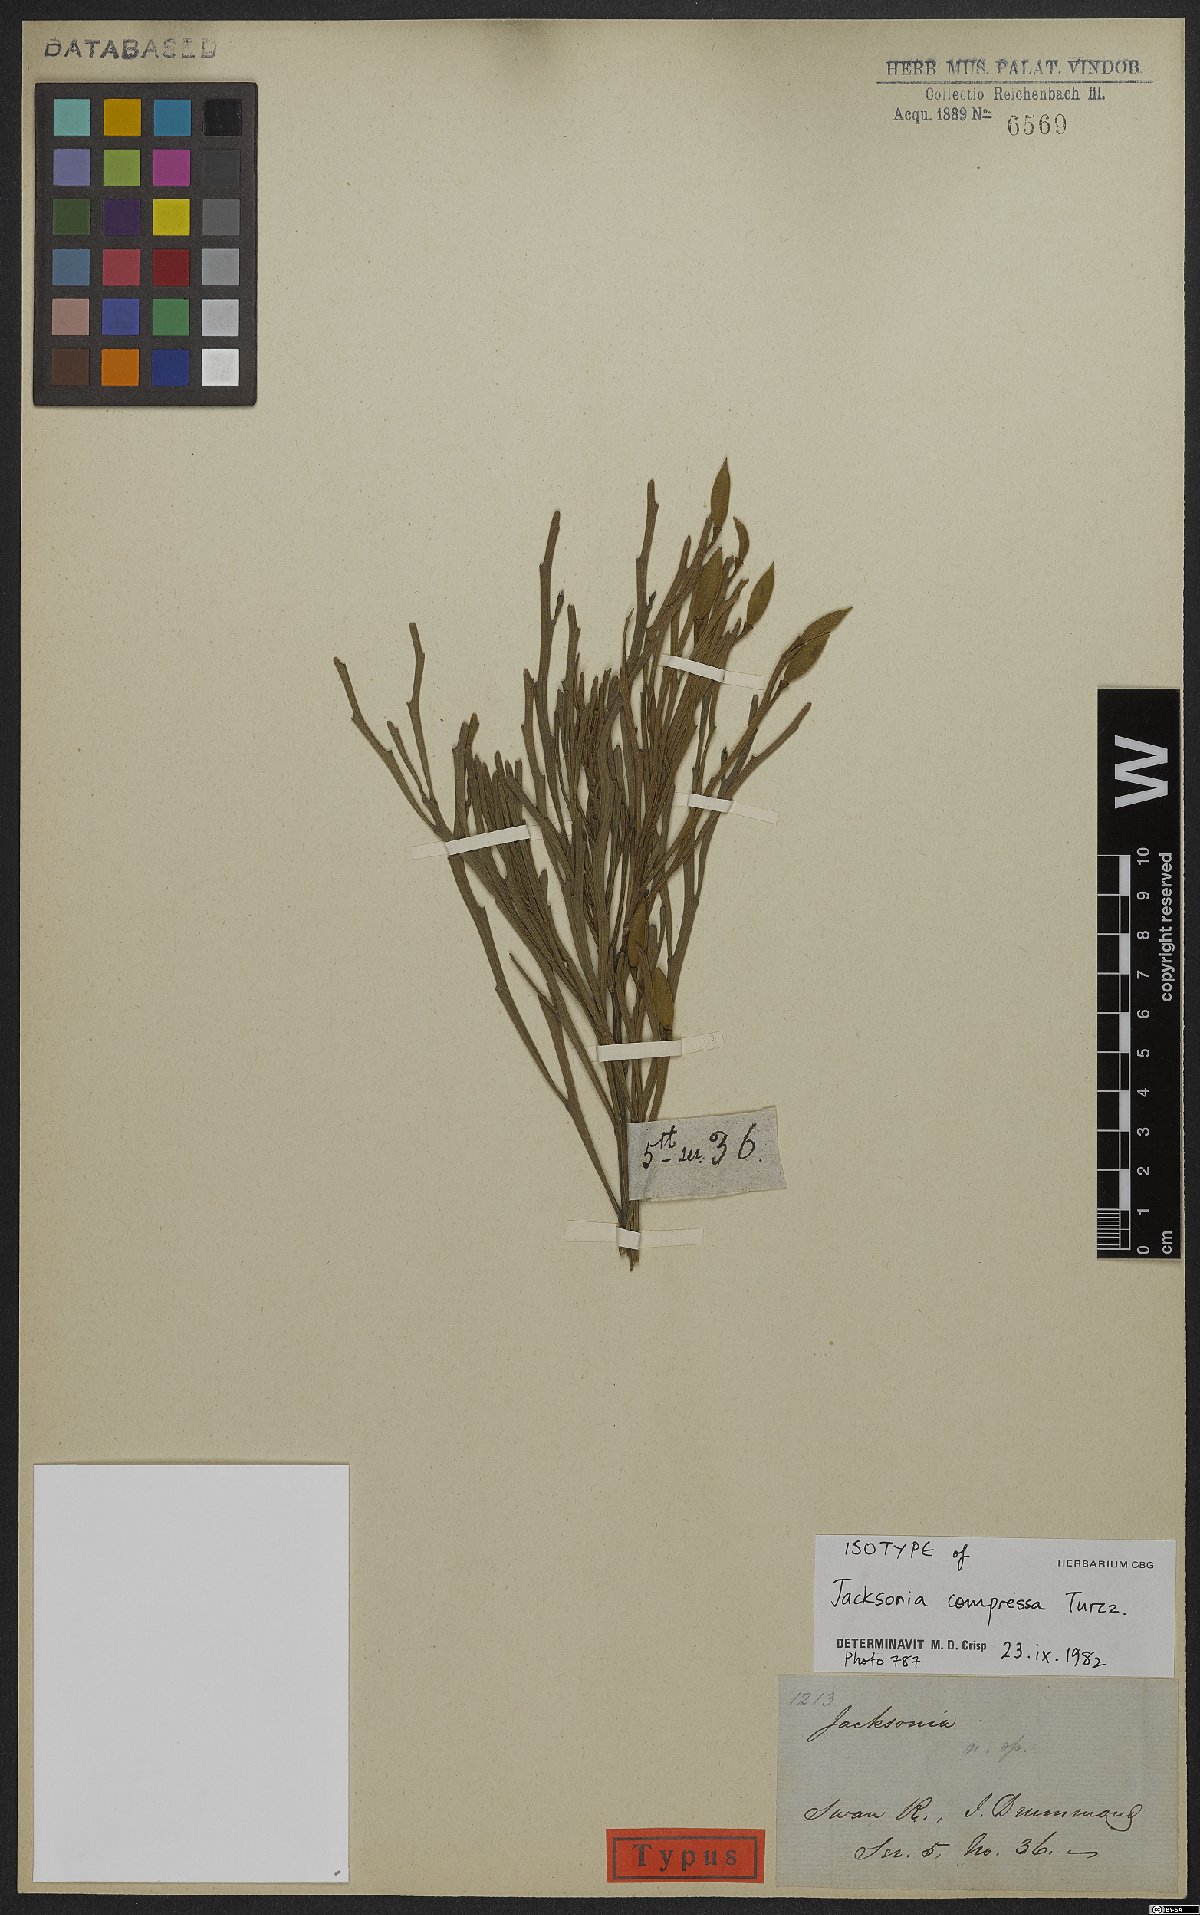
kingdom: Plantae
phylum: Tracheophyta
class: Magnoliopsida
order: Fabales
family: Fabaceae
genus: Jacksonia
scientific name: Jacksonia compressa
